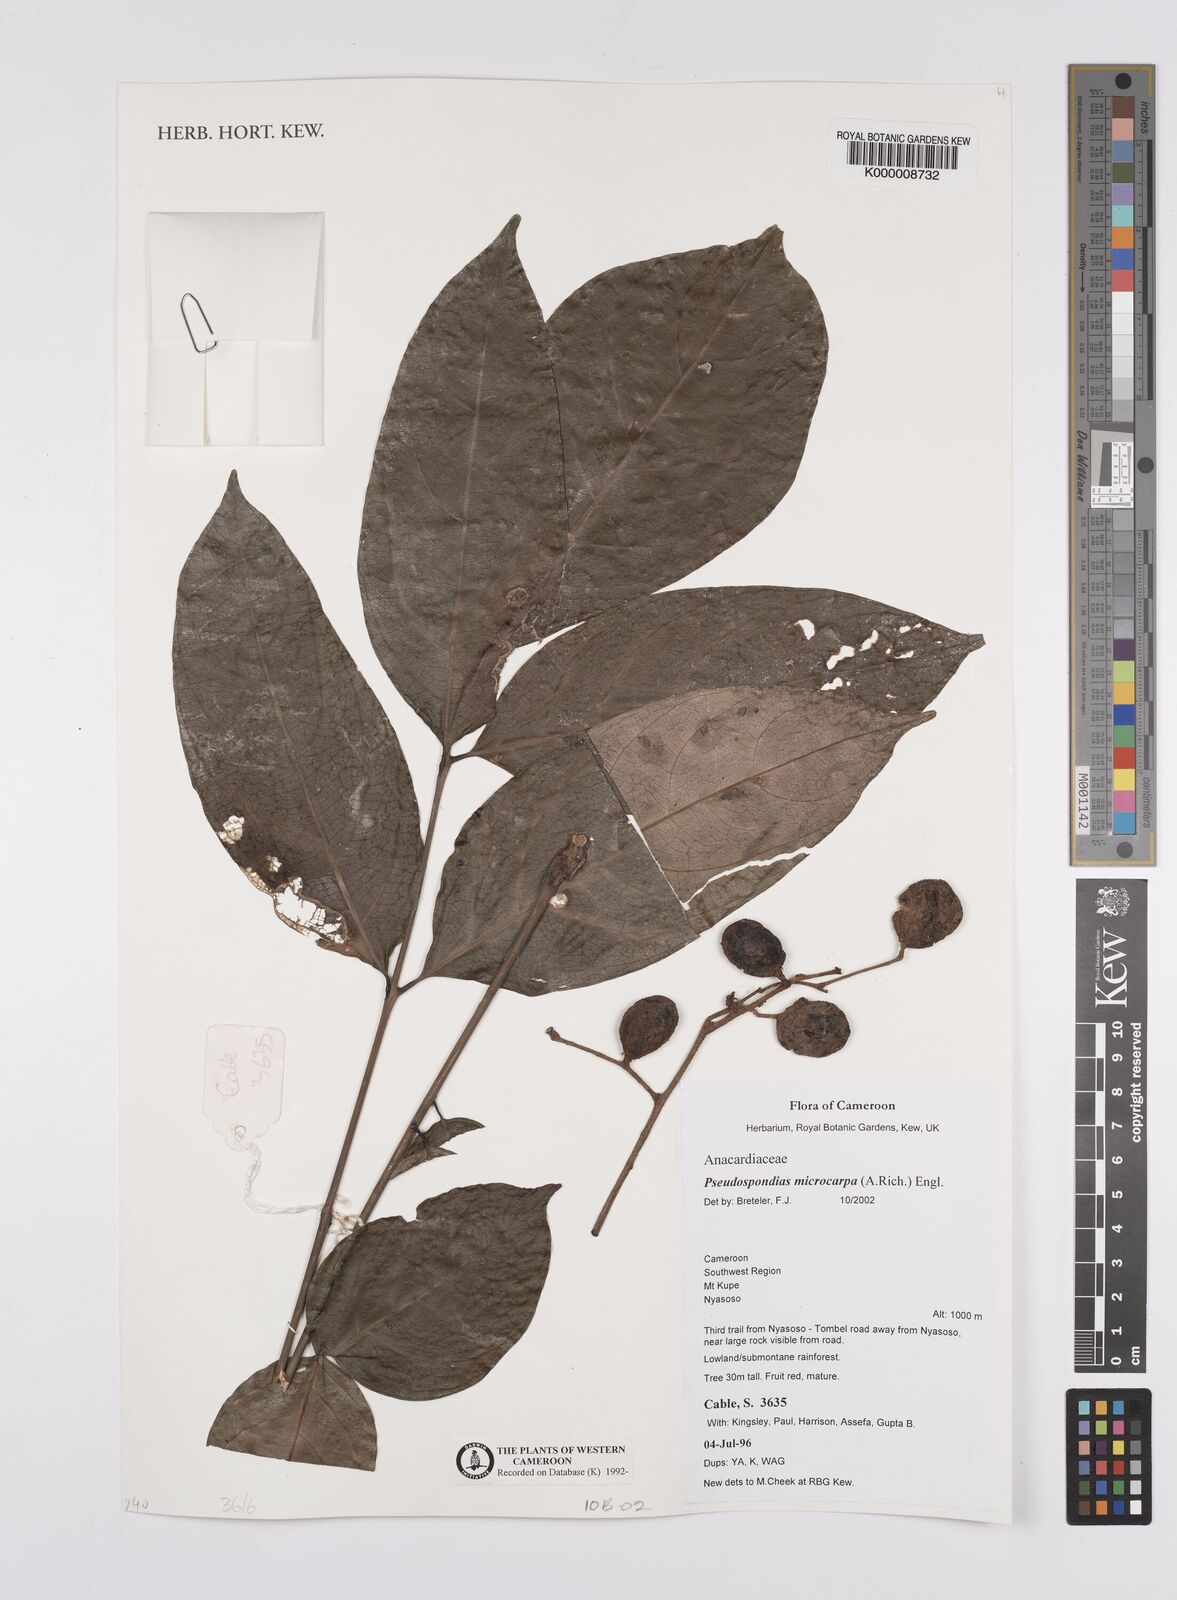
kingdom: Plantae
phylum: Tracheophyta
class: Magnoliopsida
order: Sapindales
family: Anacardiaceae
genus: Pseudospondias
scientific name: Pseudospondias microcarpa
